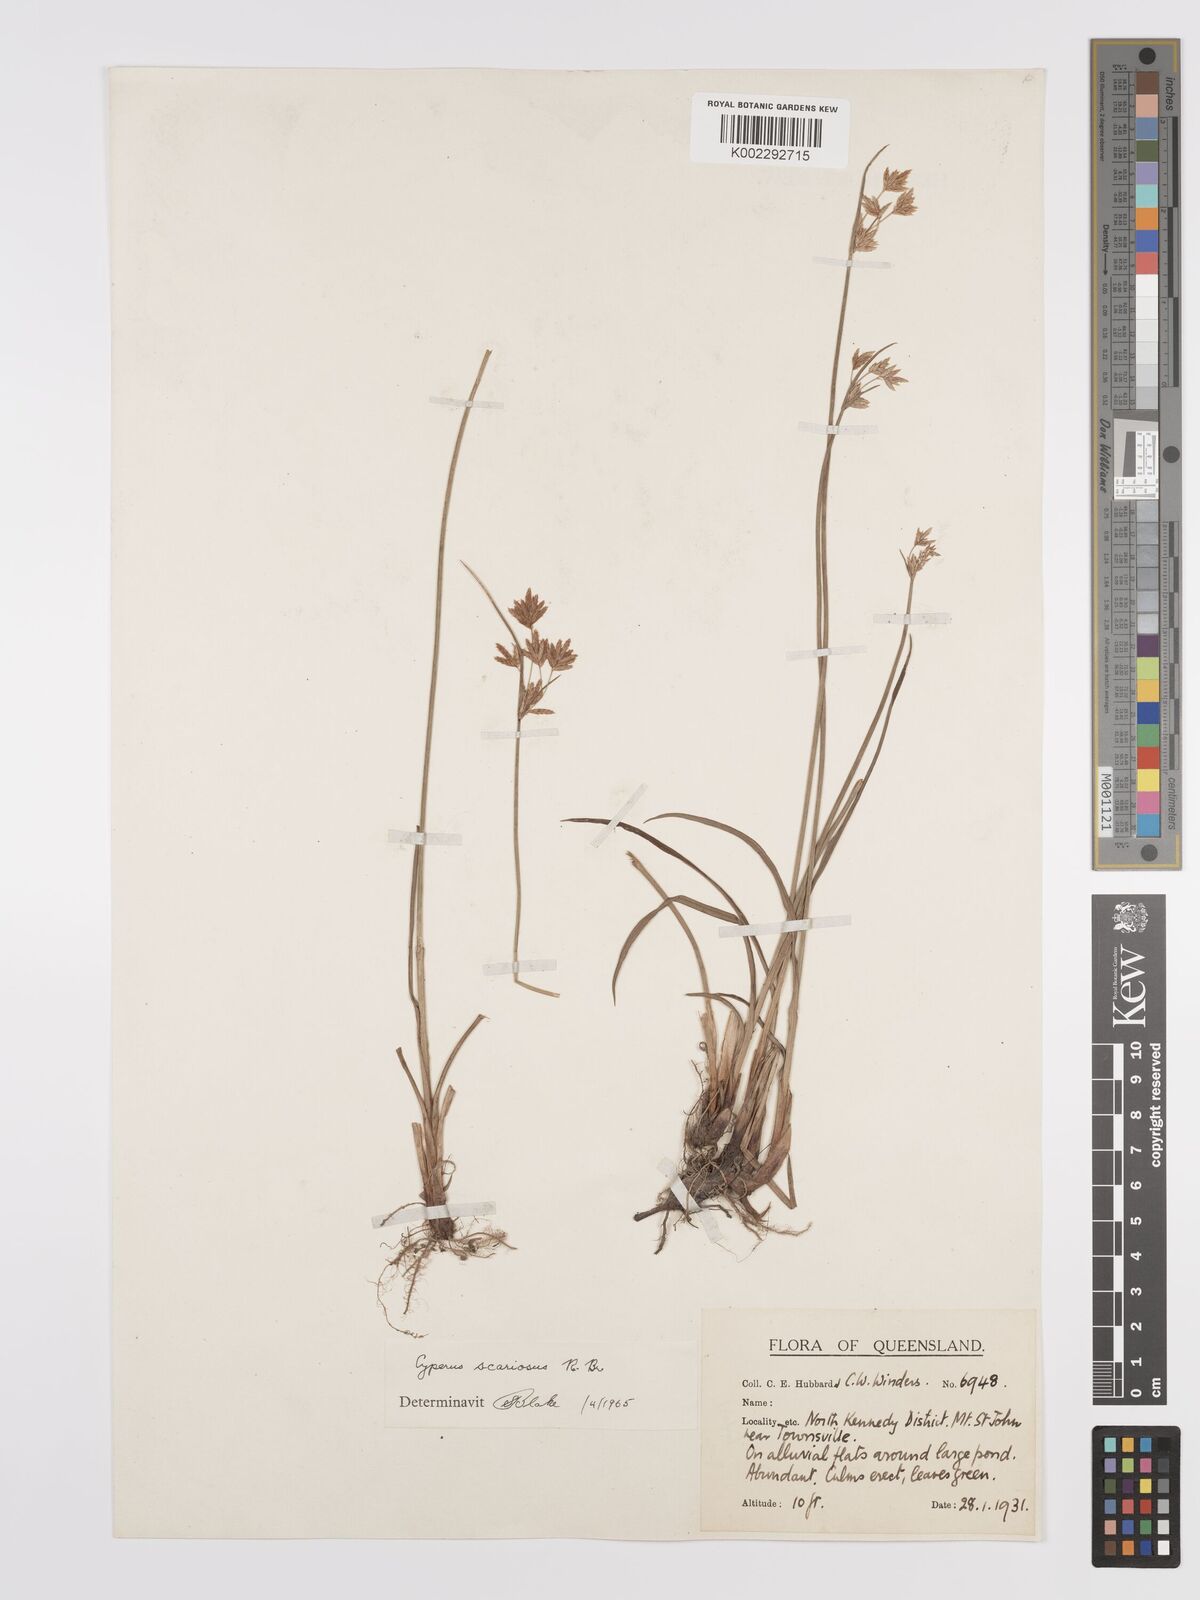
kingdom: Plantae
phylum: Tracheophyta
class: Liliopsida
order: Poales
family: Cyperaceae
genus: Cyperus
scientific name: Cyperus scariosus
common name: Cypriol
